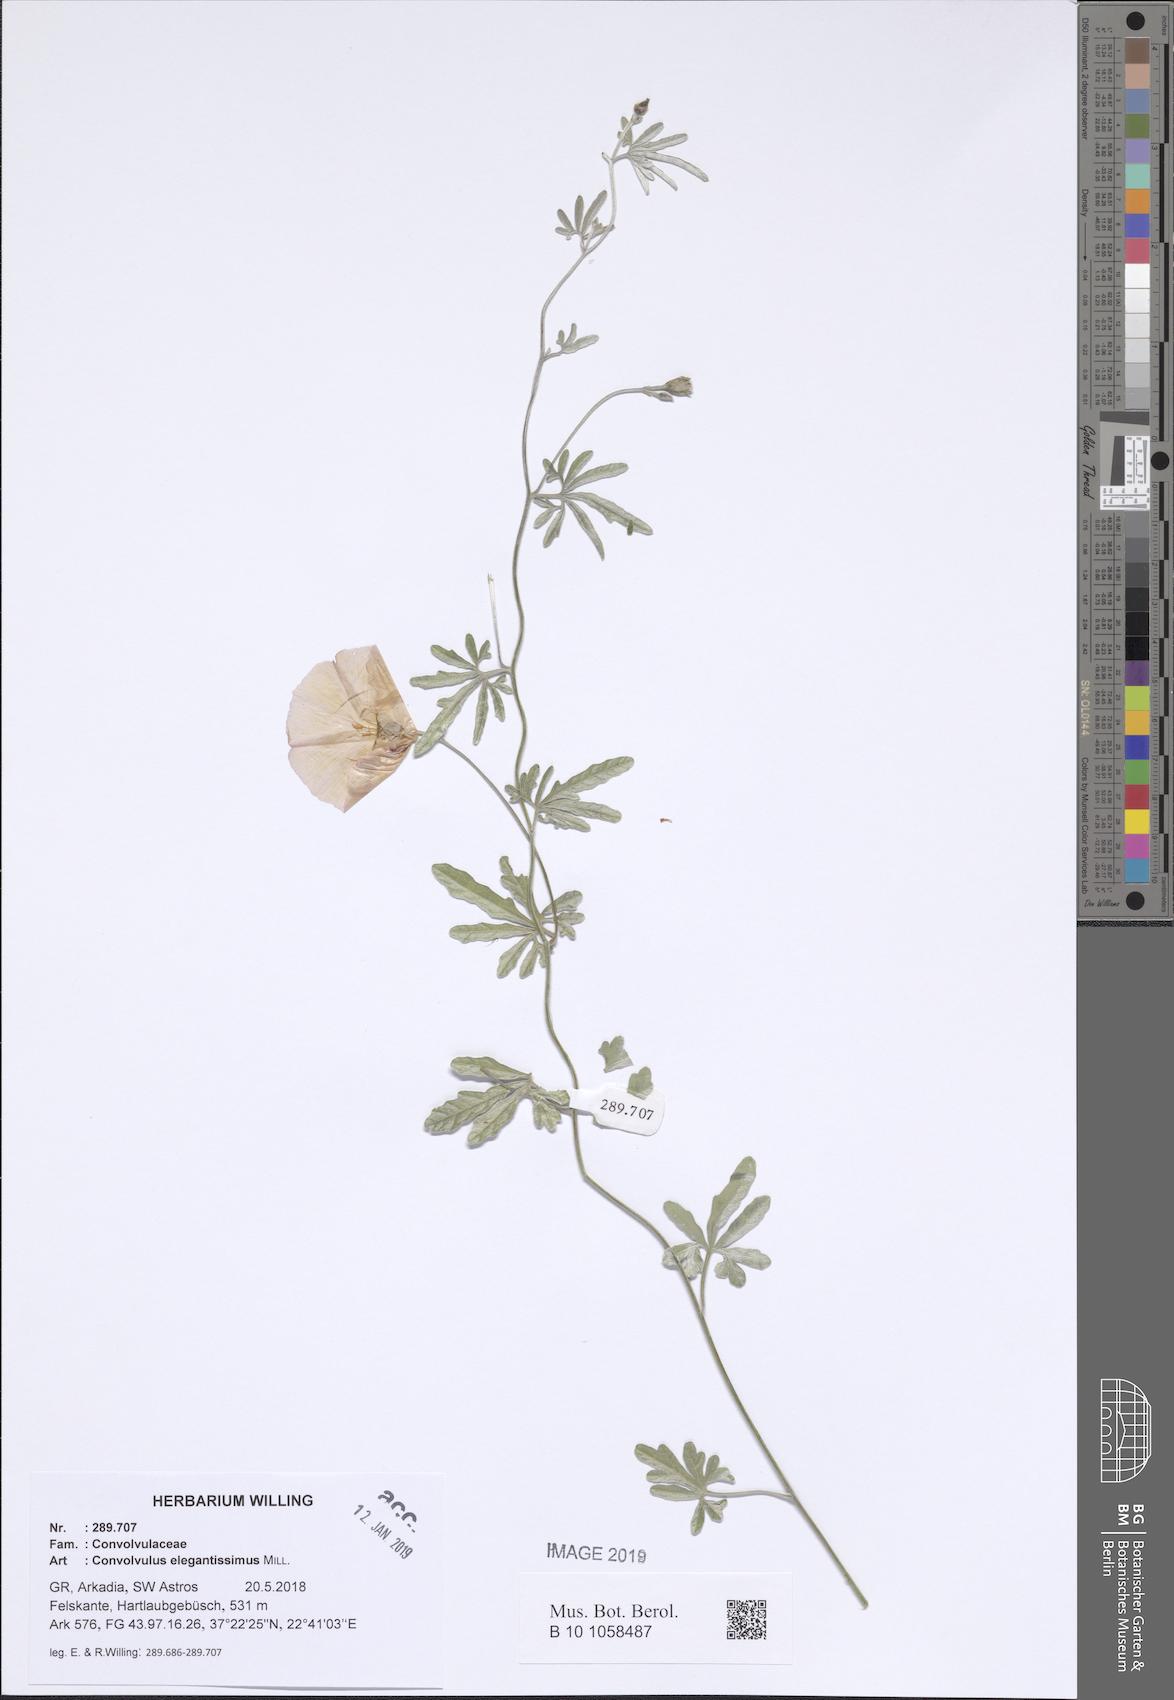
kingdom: Plantae
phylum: Tracheophyta
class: Magnoliopsida
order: Solanales
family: Convolvulaceae
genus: Convolvulus
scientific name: Convolvulus elegantissimus
